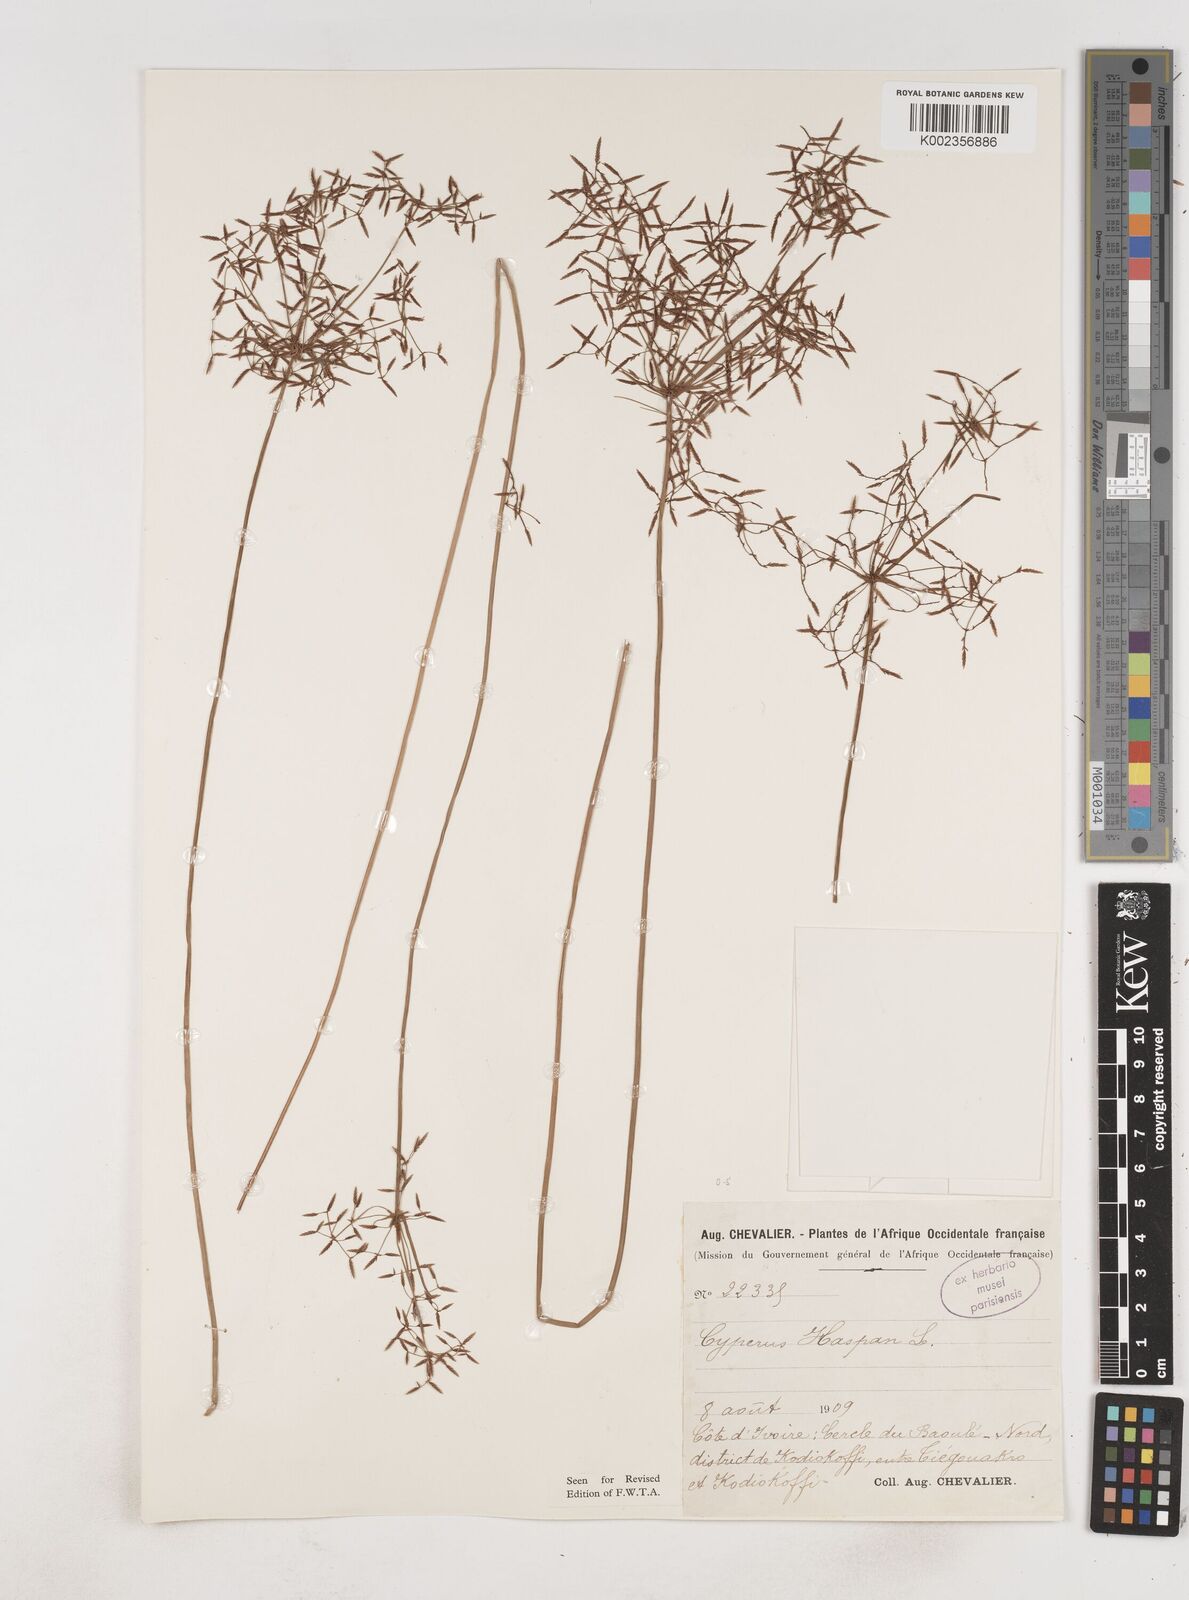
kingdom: Plantae
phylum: Tracheophyta
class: Liliopsida
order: Poales
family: Cyperaceae
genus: Cyperus
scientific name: Cyperus haspan
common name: Haspan flatsedge
